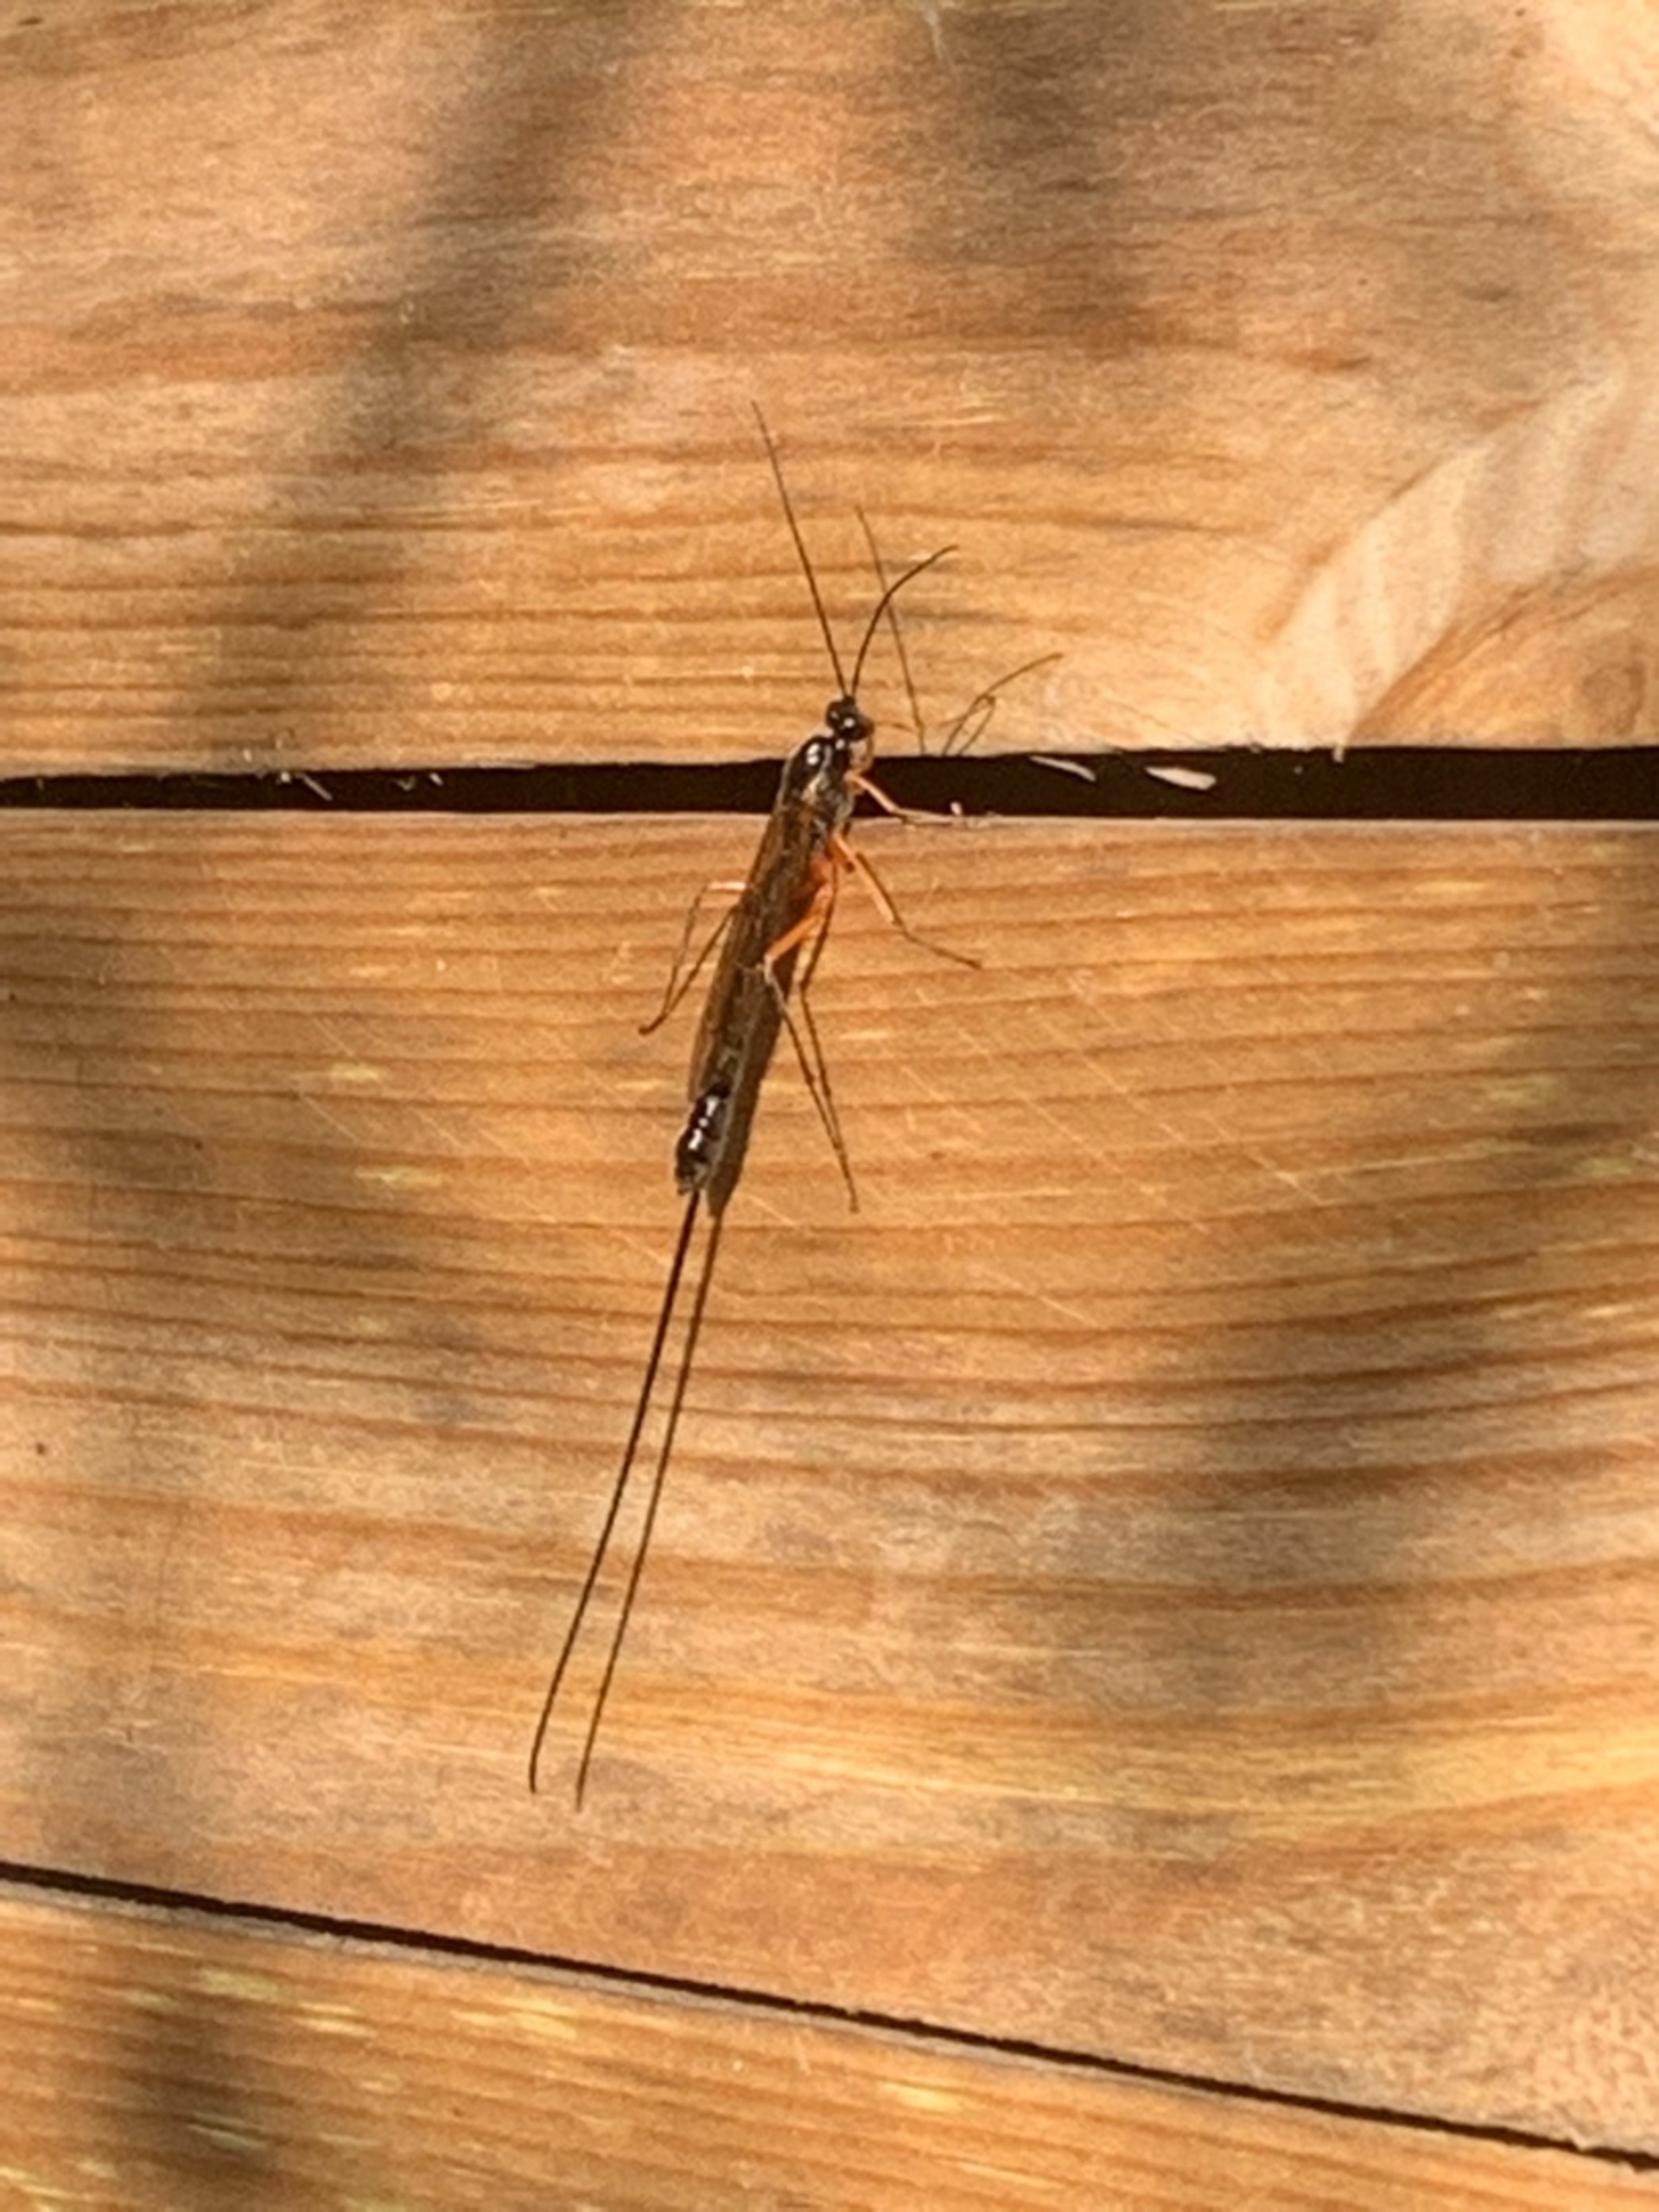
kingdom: Animalia
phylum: Arthropoda
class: Insecta
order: Hymenoptera
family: Ichneumonidae
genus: Dolichomitus
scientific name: Dolichomitus
